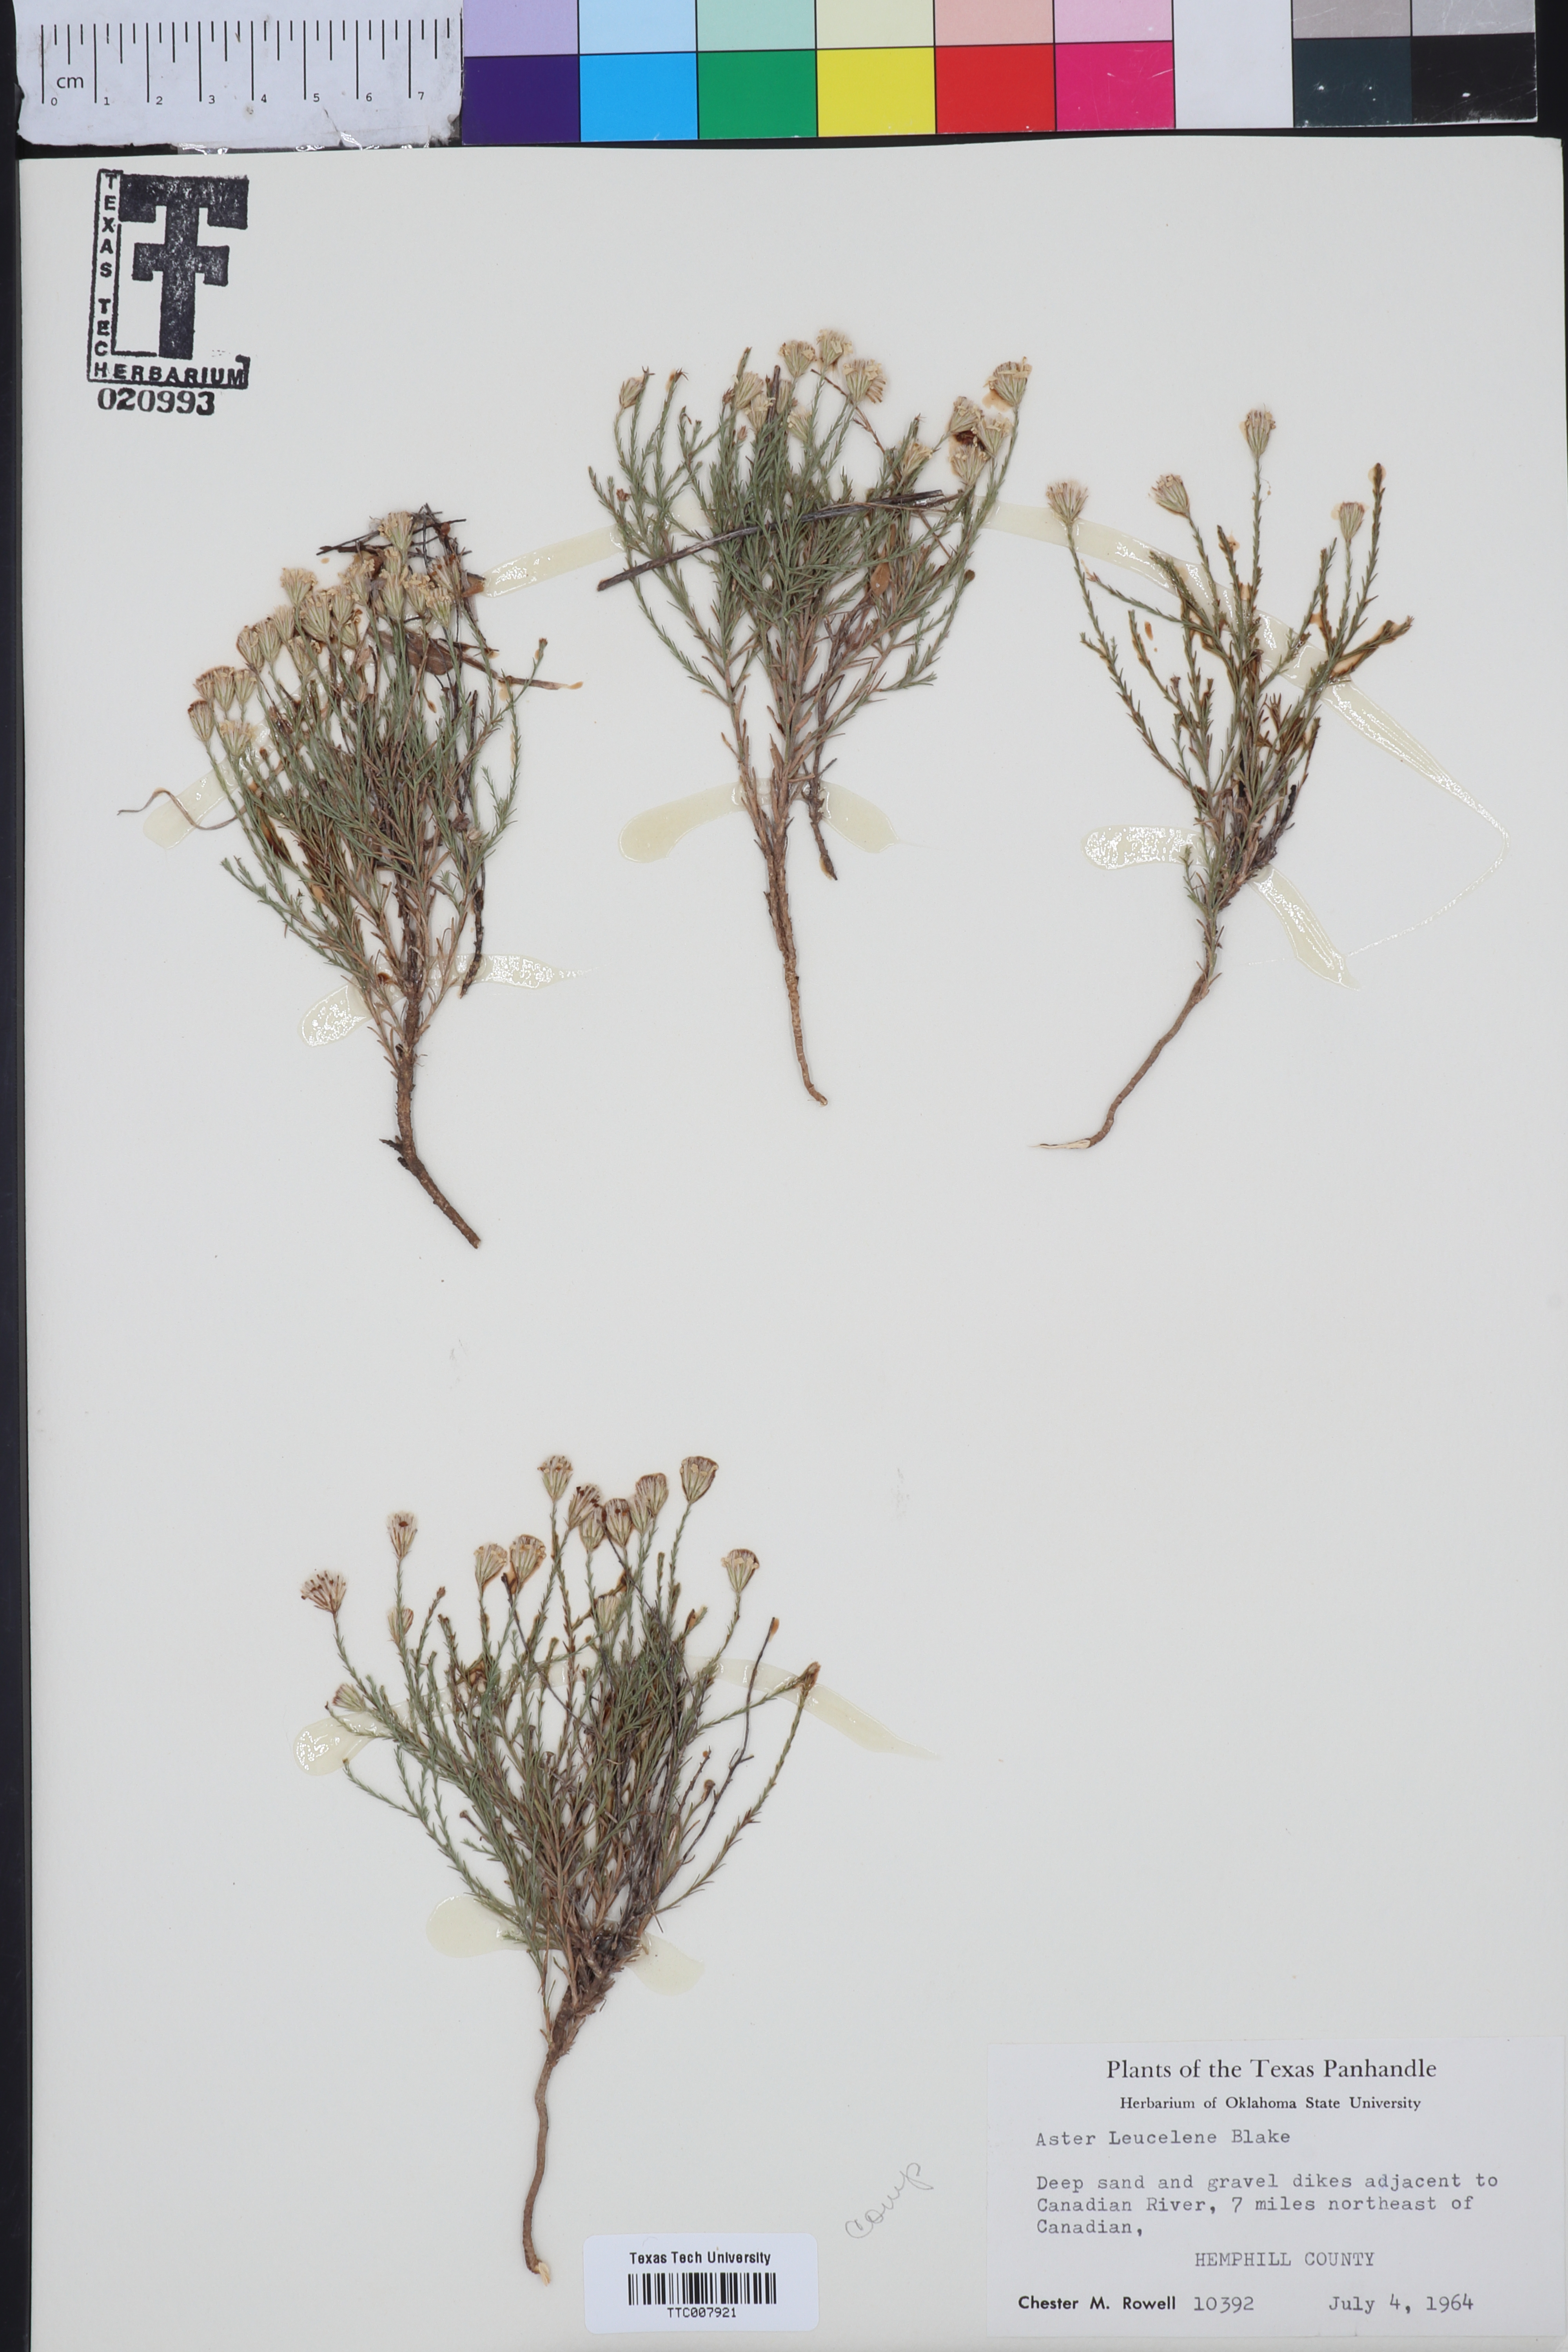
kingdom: Plantae
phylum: Tracheophyta
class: Magnoliopsida
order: Asterales
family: Asteraceae
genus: Chaetopappa
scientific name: Chaetopappa ericoides
